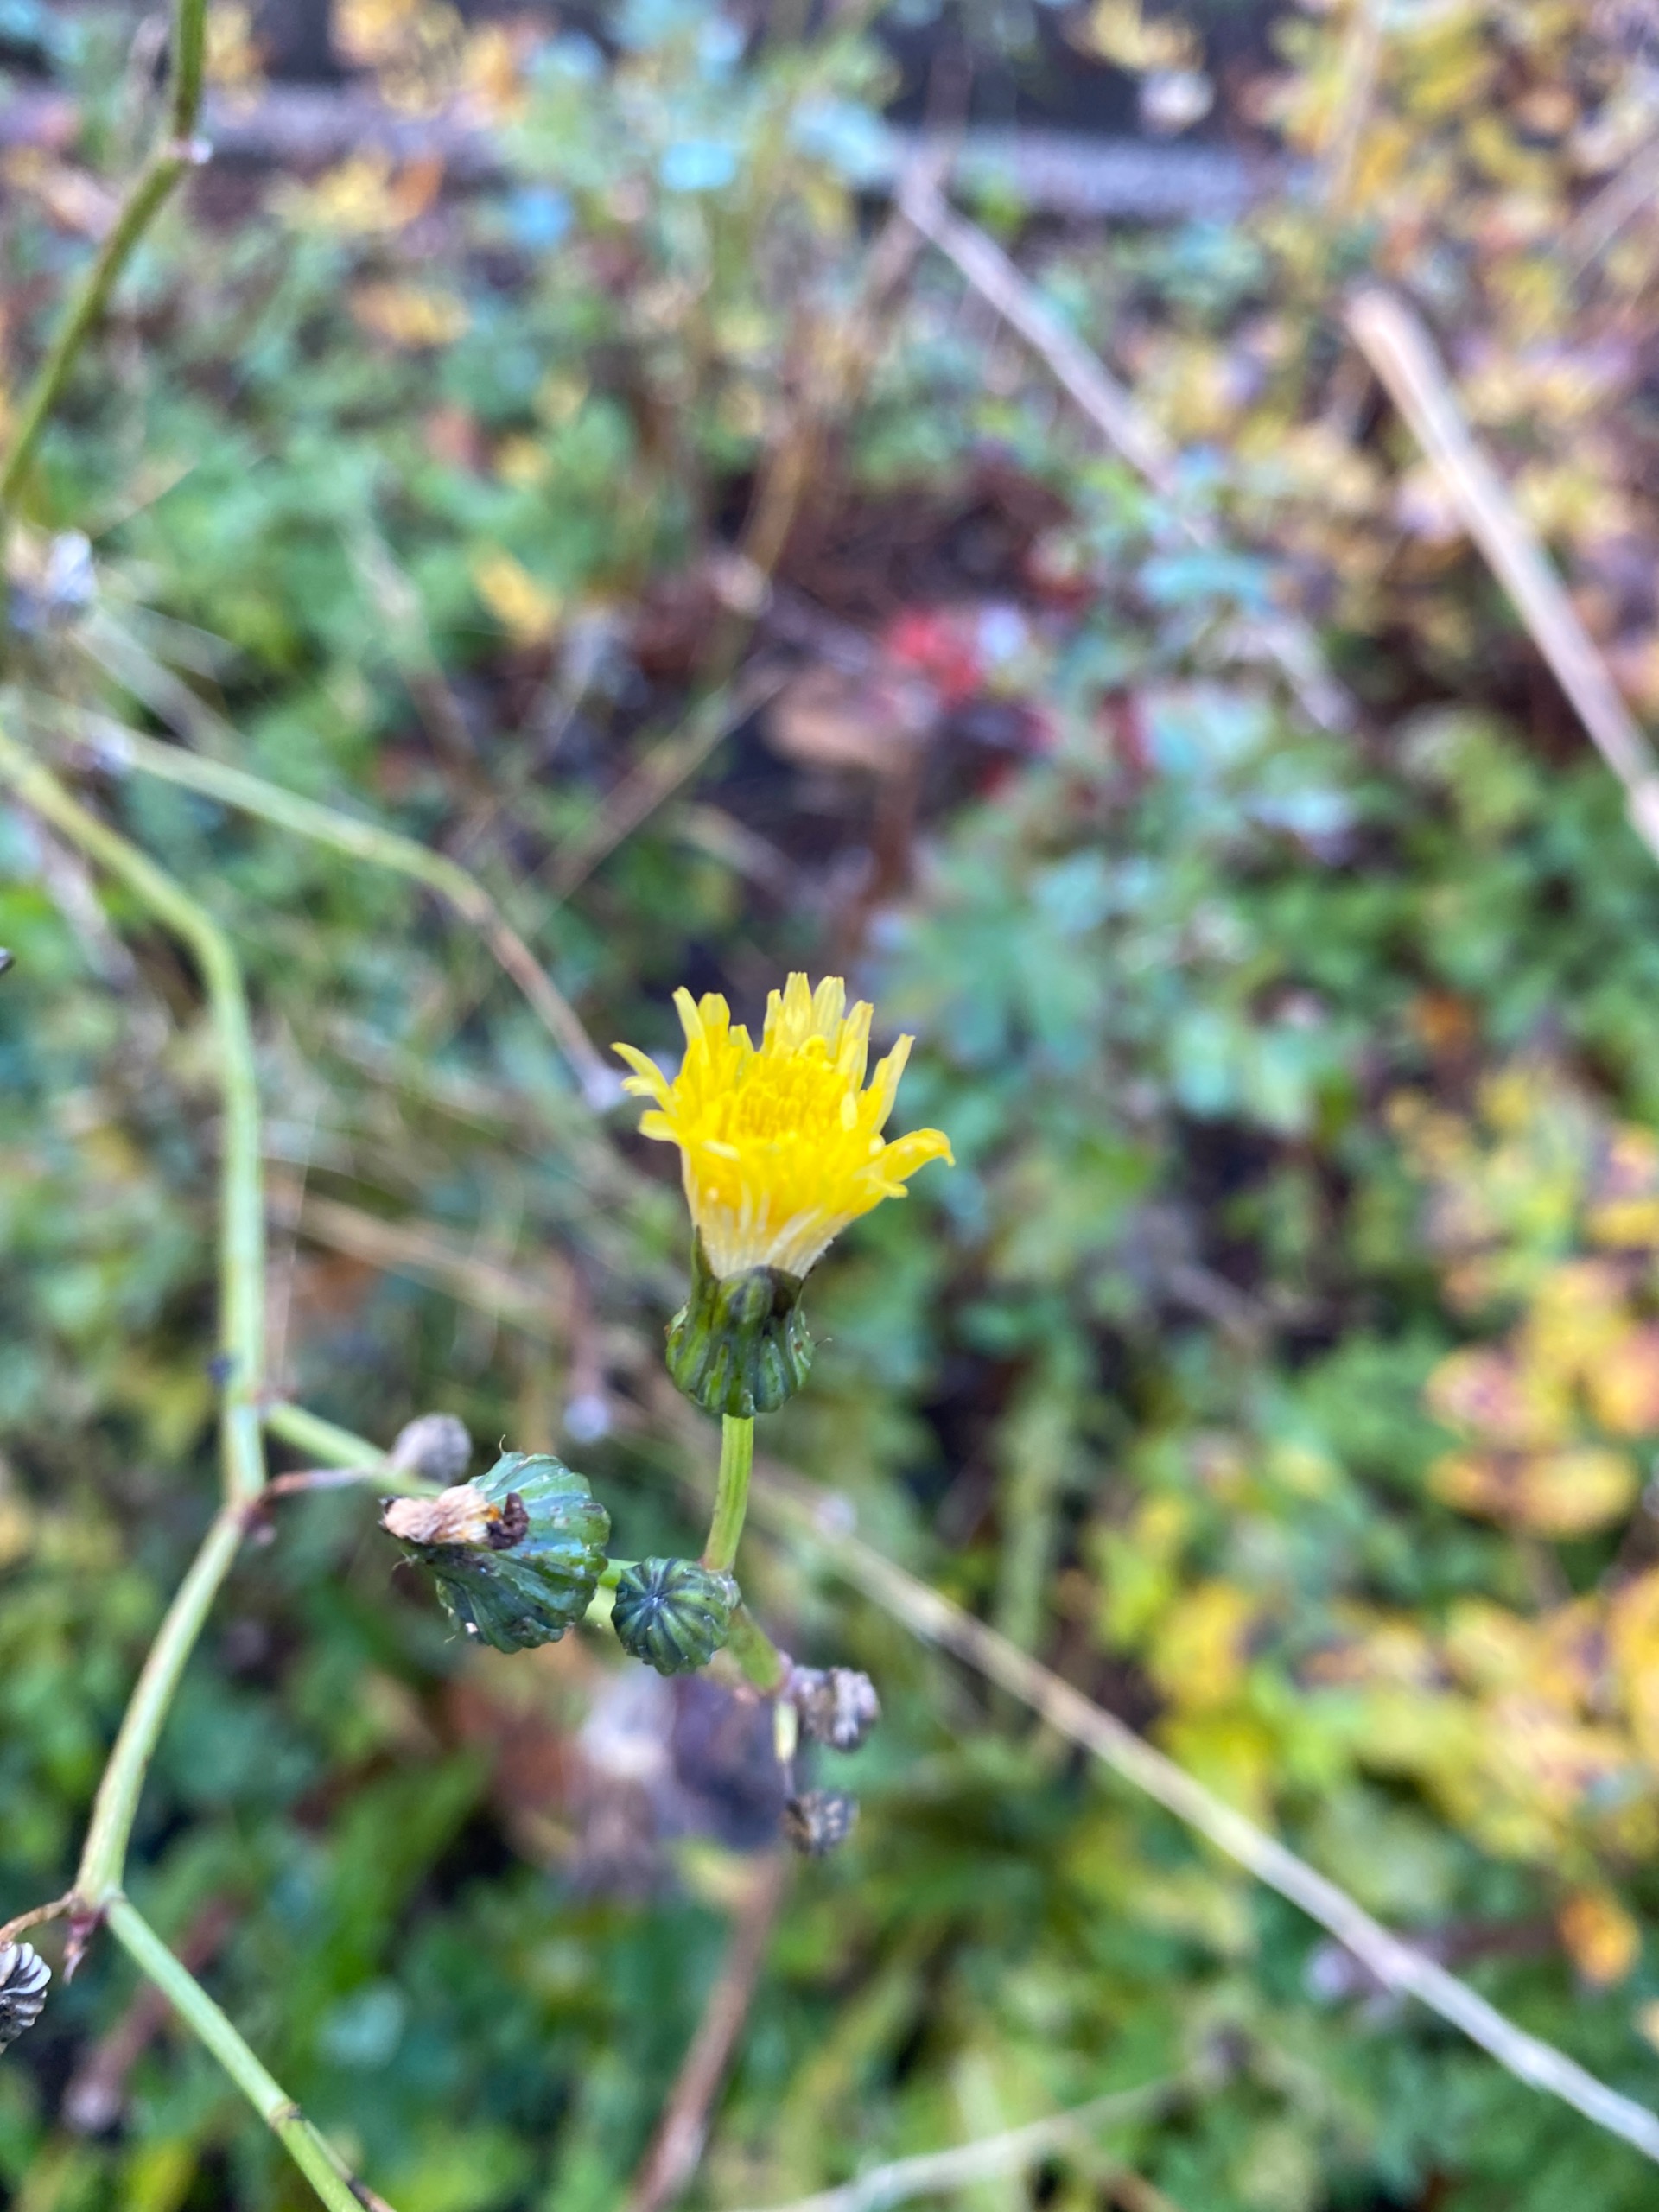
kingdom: Plantae
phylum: Tracheophyta
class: Magnoliopsida
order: Asterales
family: Asteraceae
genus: Sonchus
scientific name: Sonchus
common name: Svinemælkslægten
